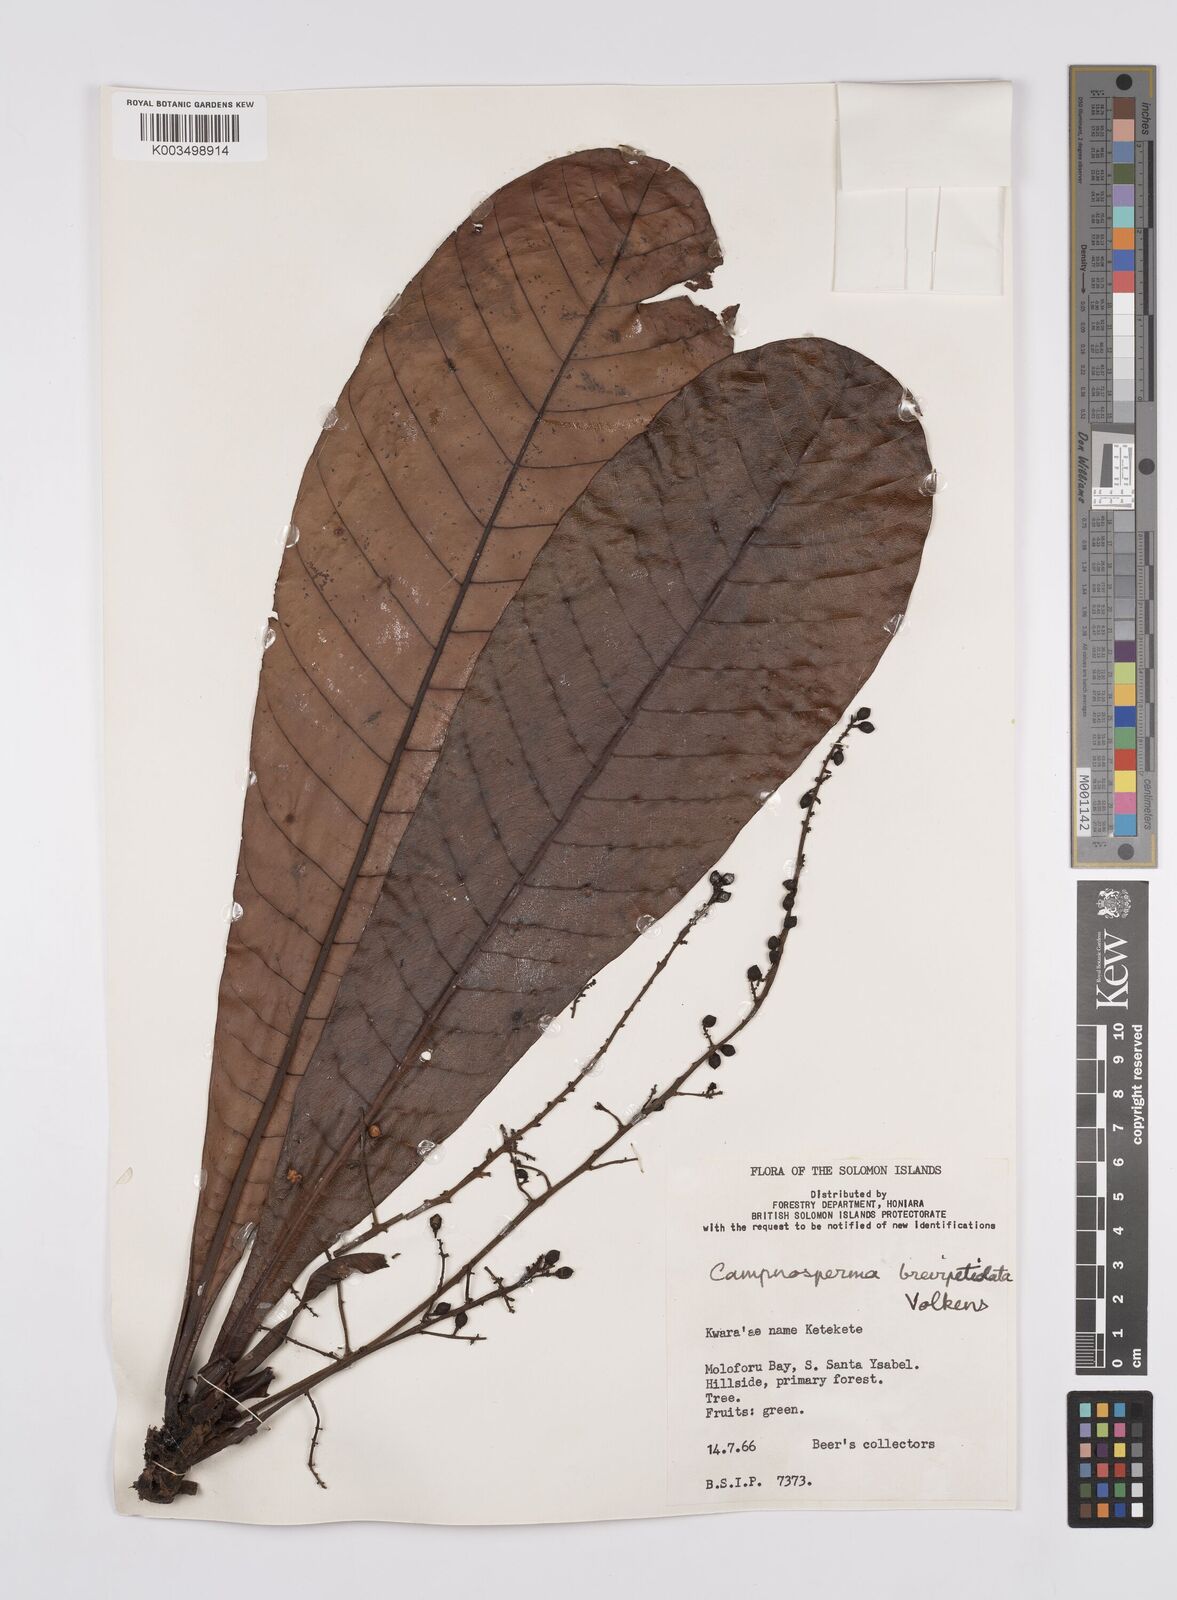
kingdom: Plantae
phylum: Tracheophyta
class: Magnoliopsida
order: Sapindales
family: Anacardiaceae
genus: Campnosperma
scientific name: Campnosperma brevipetiolatum
